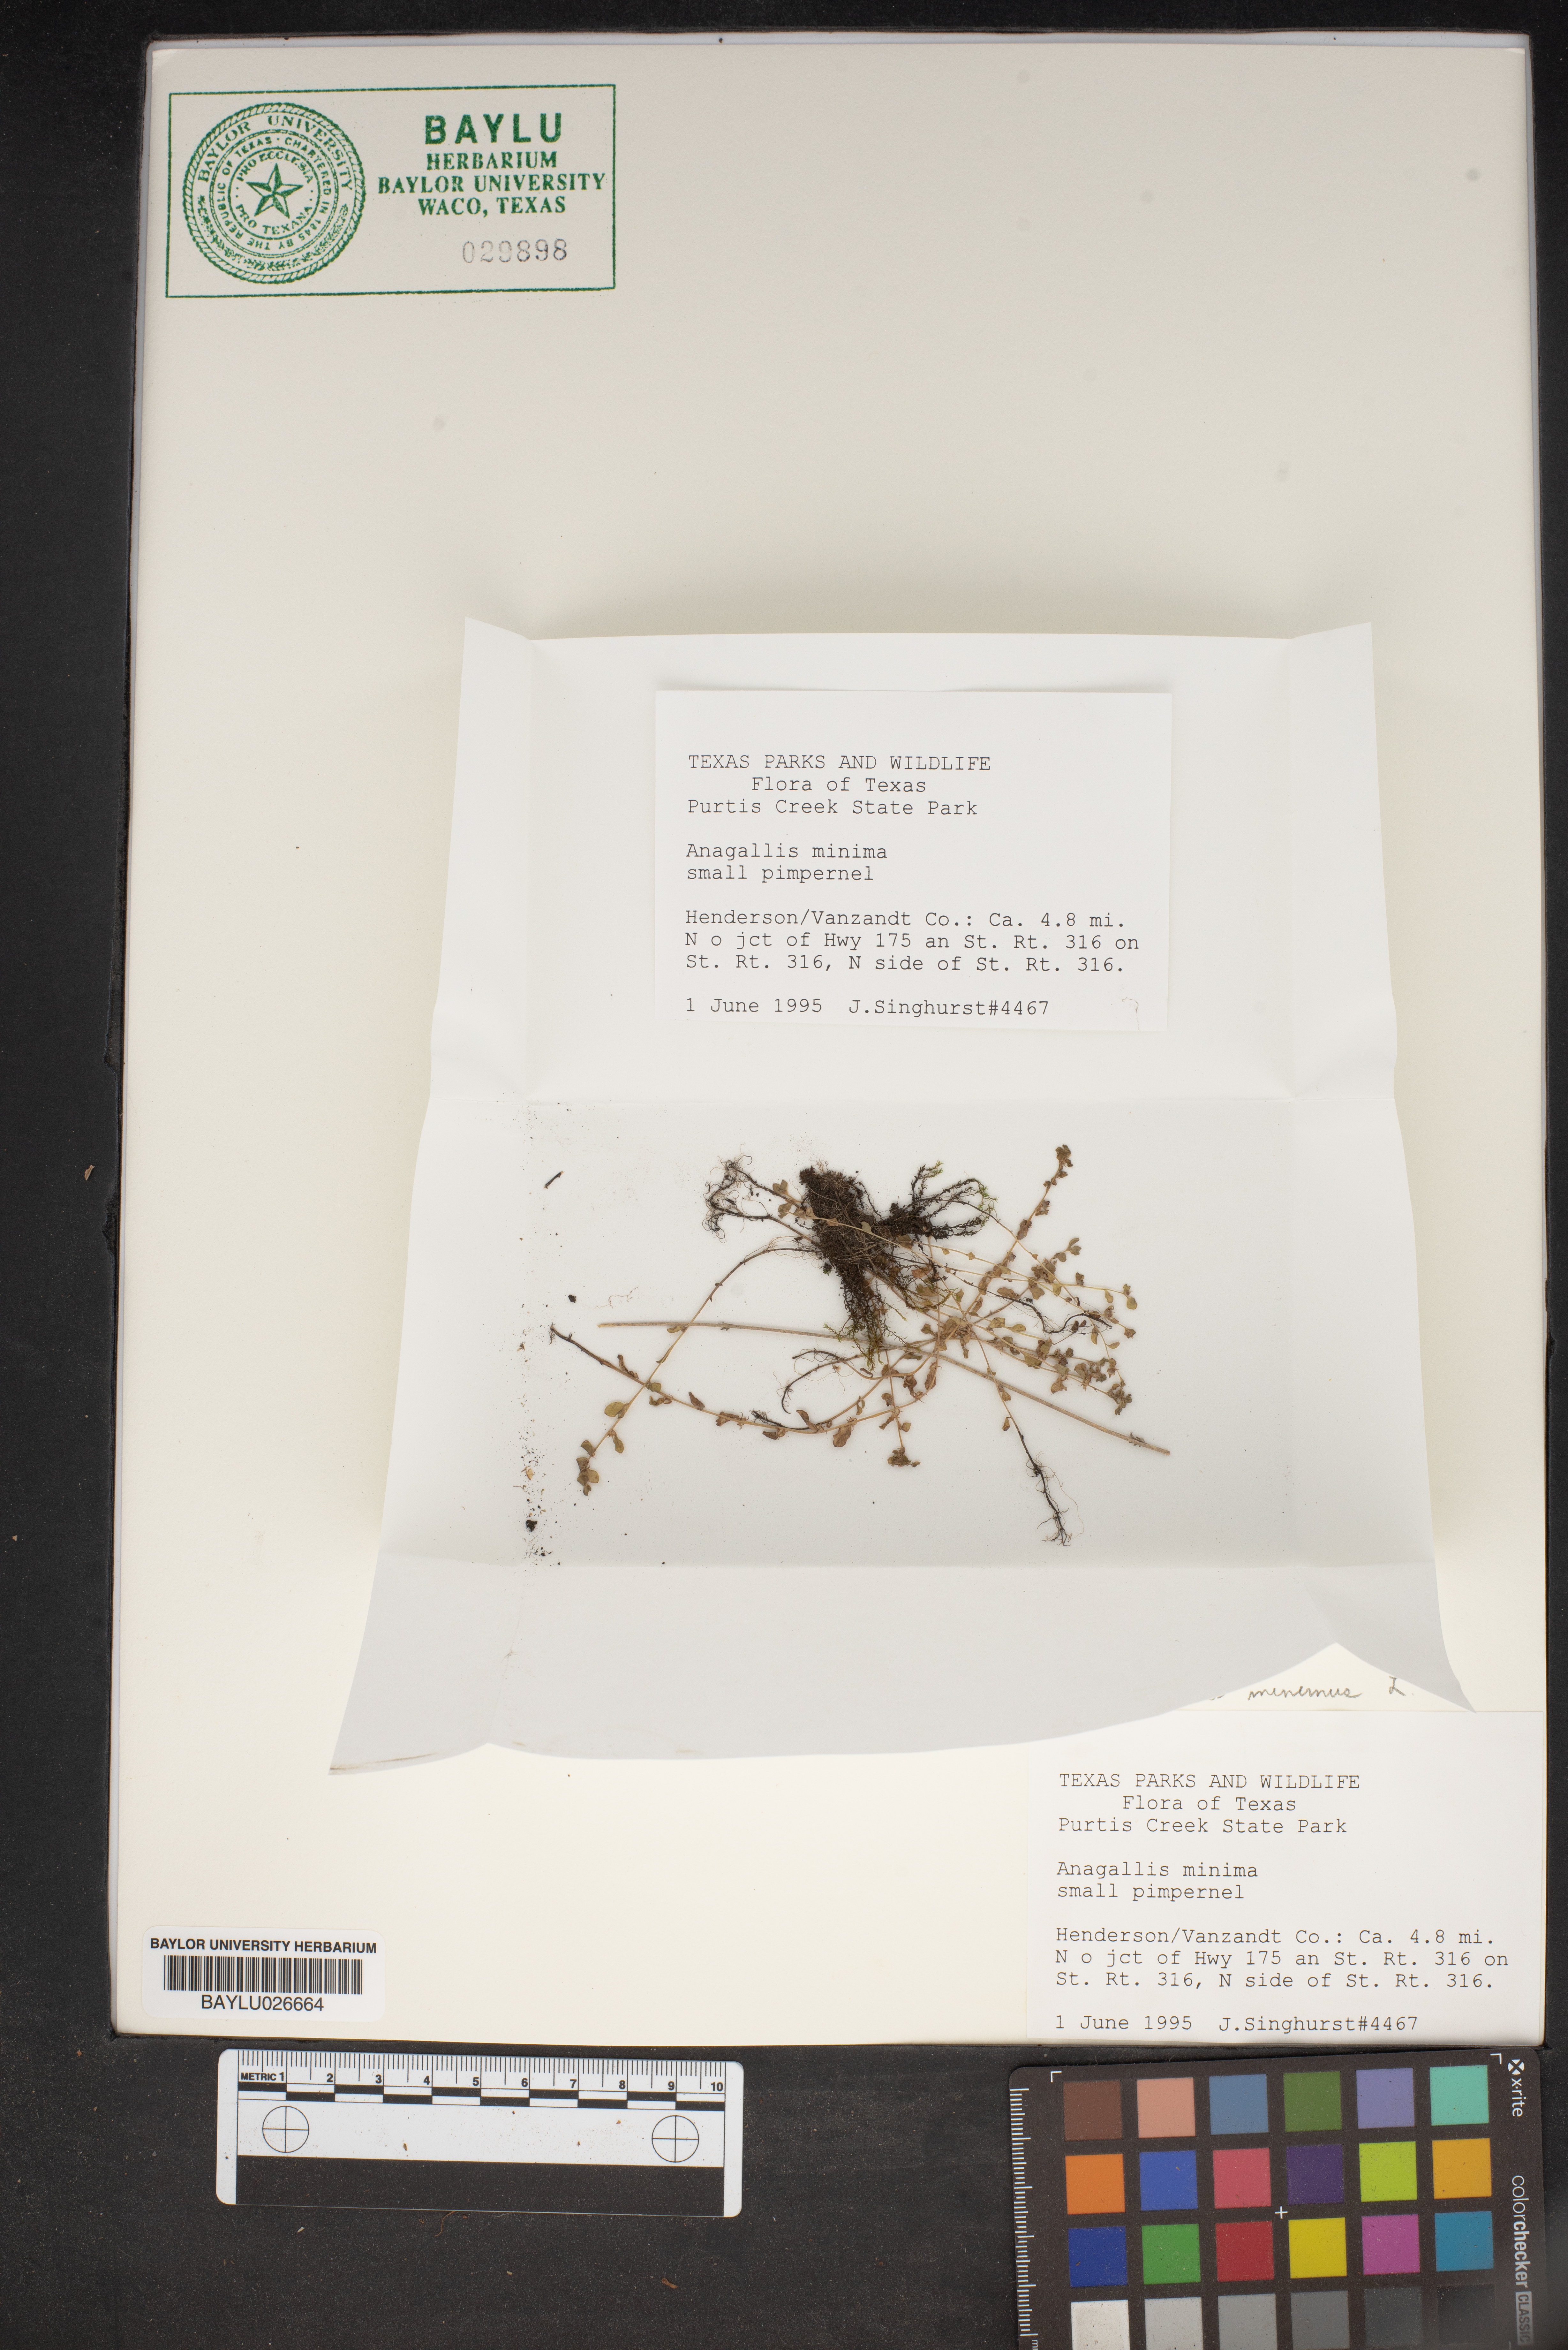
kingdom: Plantae
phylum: Tracheophyta
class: Magnoliopsida
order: Ericales
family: Primulaceae
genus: Lysimachia
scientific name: Lysimachia minima
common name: Chaffweed
